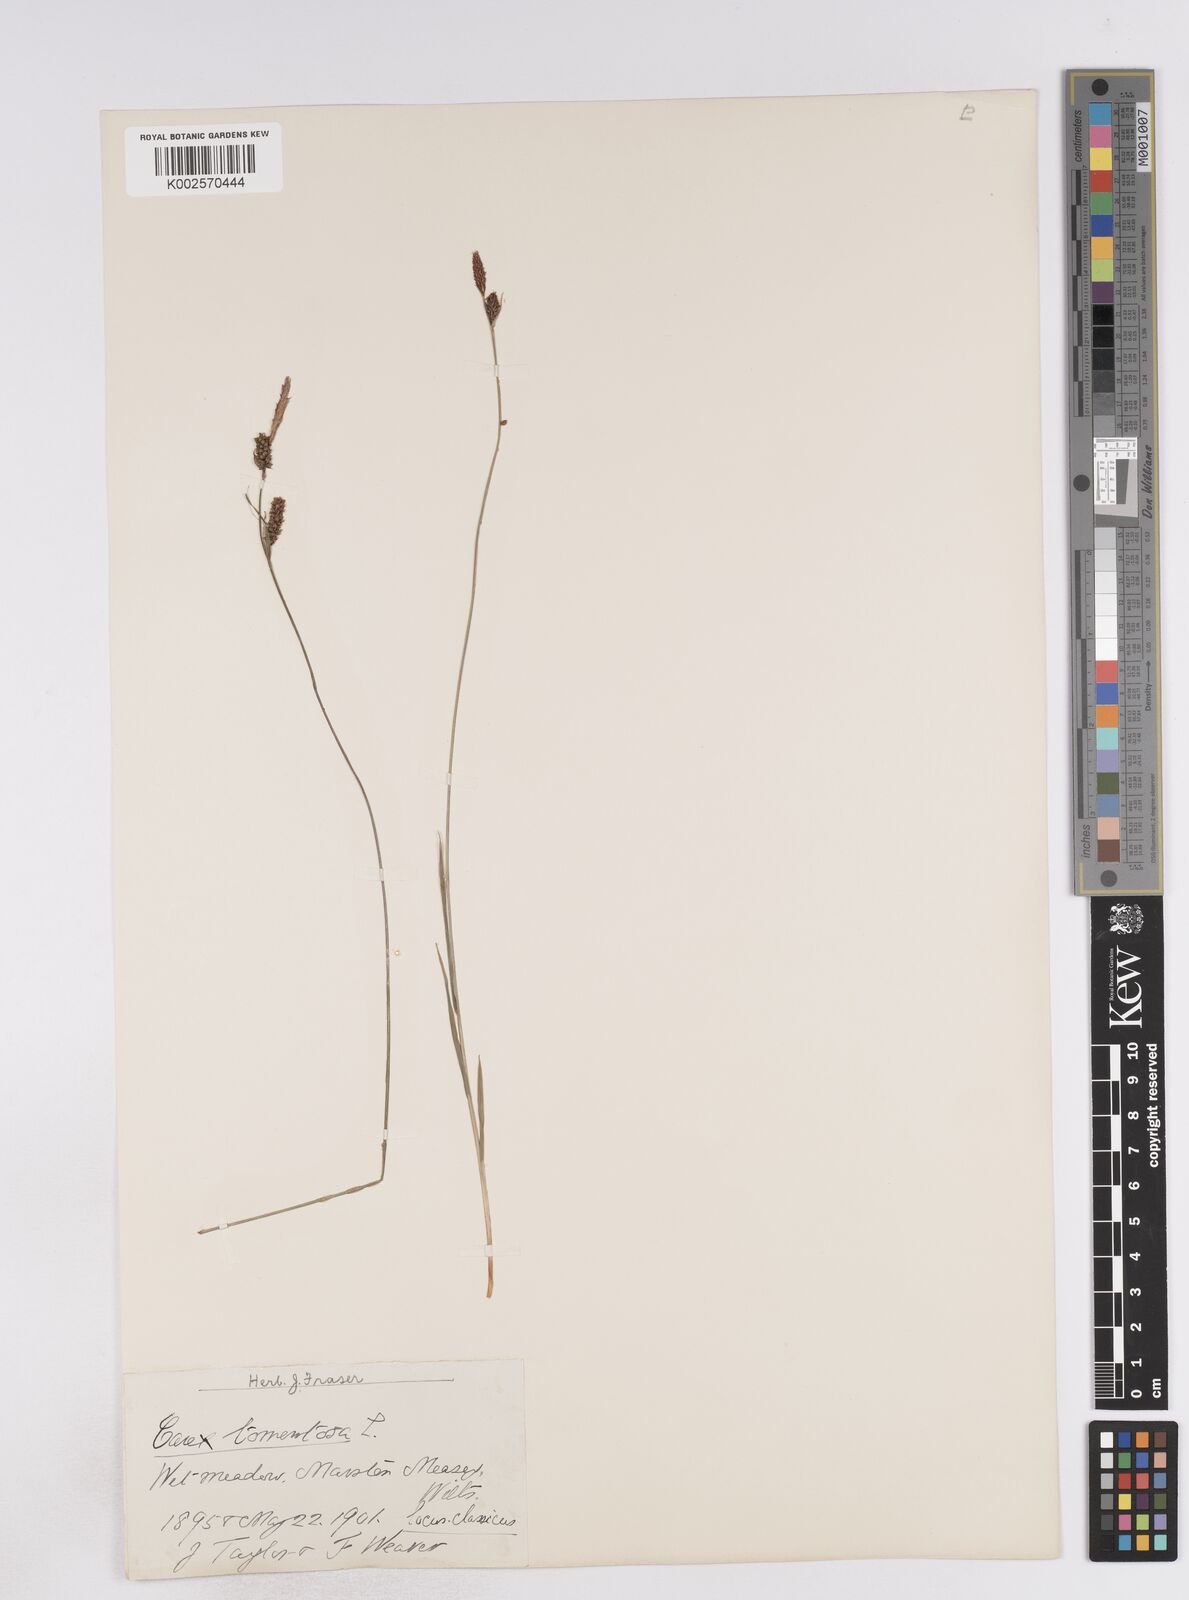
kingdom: Plantae
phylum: Tracheophyta
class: Liliopsida
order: Poales
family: Cyperaceae
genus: Carex
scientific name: Carex montana
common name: Soft-leaved sedge
